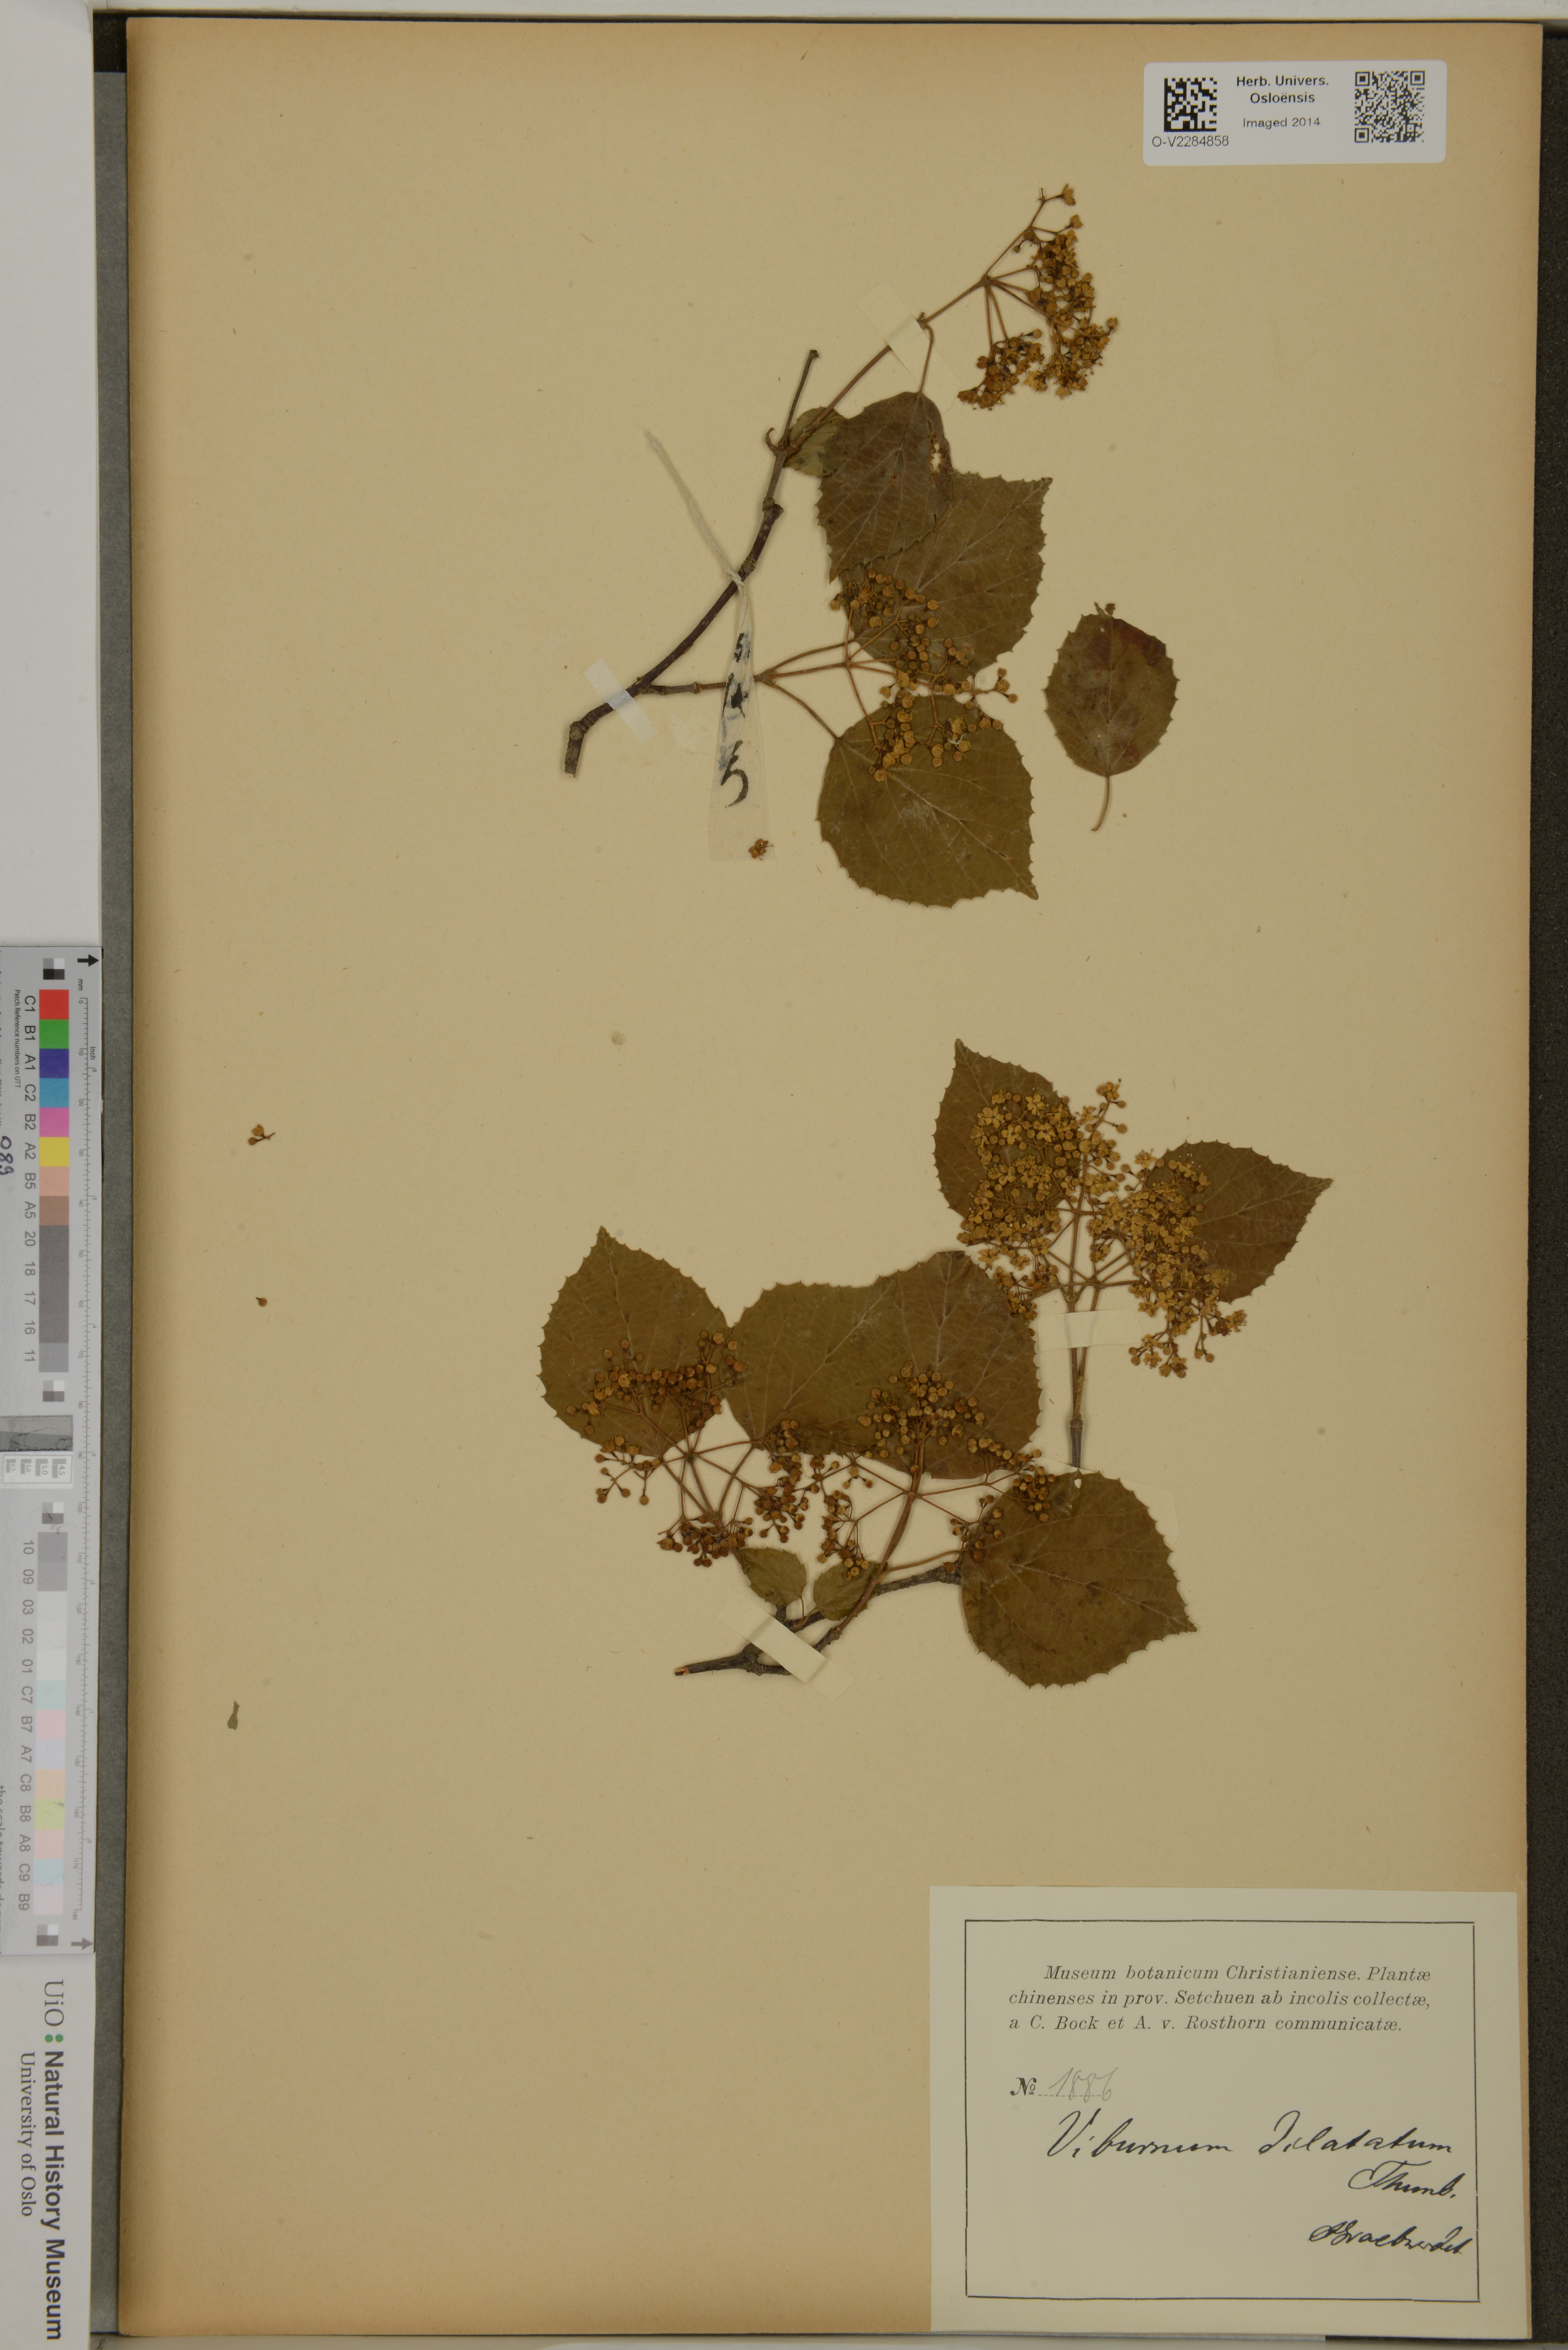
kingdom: Plantae
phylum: Tracheophyta
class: Magnoliopsida
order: Dipsacales
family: Viburnaceae
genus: Viburnum
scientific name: Viburnum dilatatum
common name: Linden arrowwood
